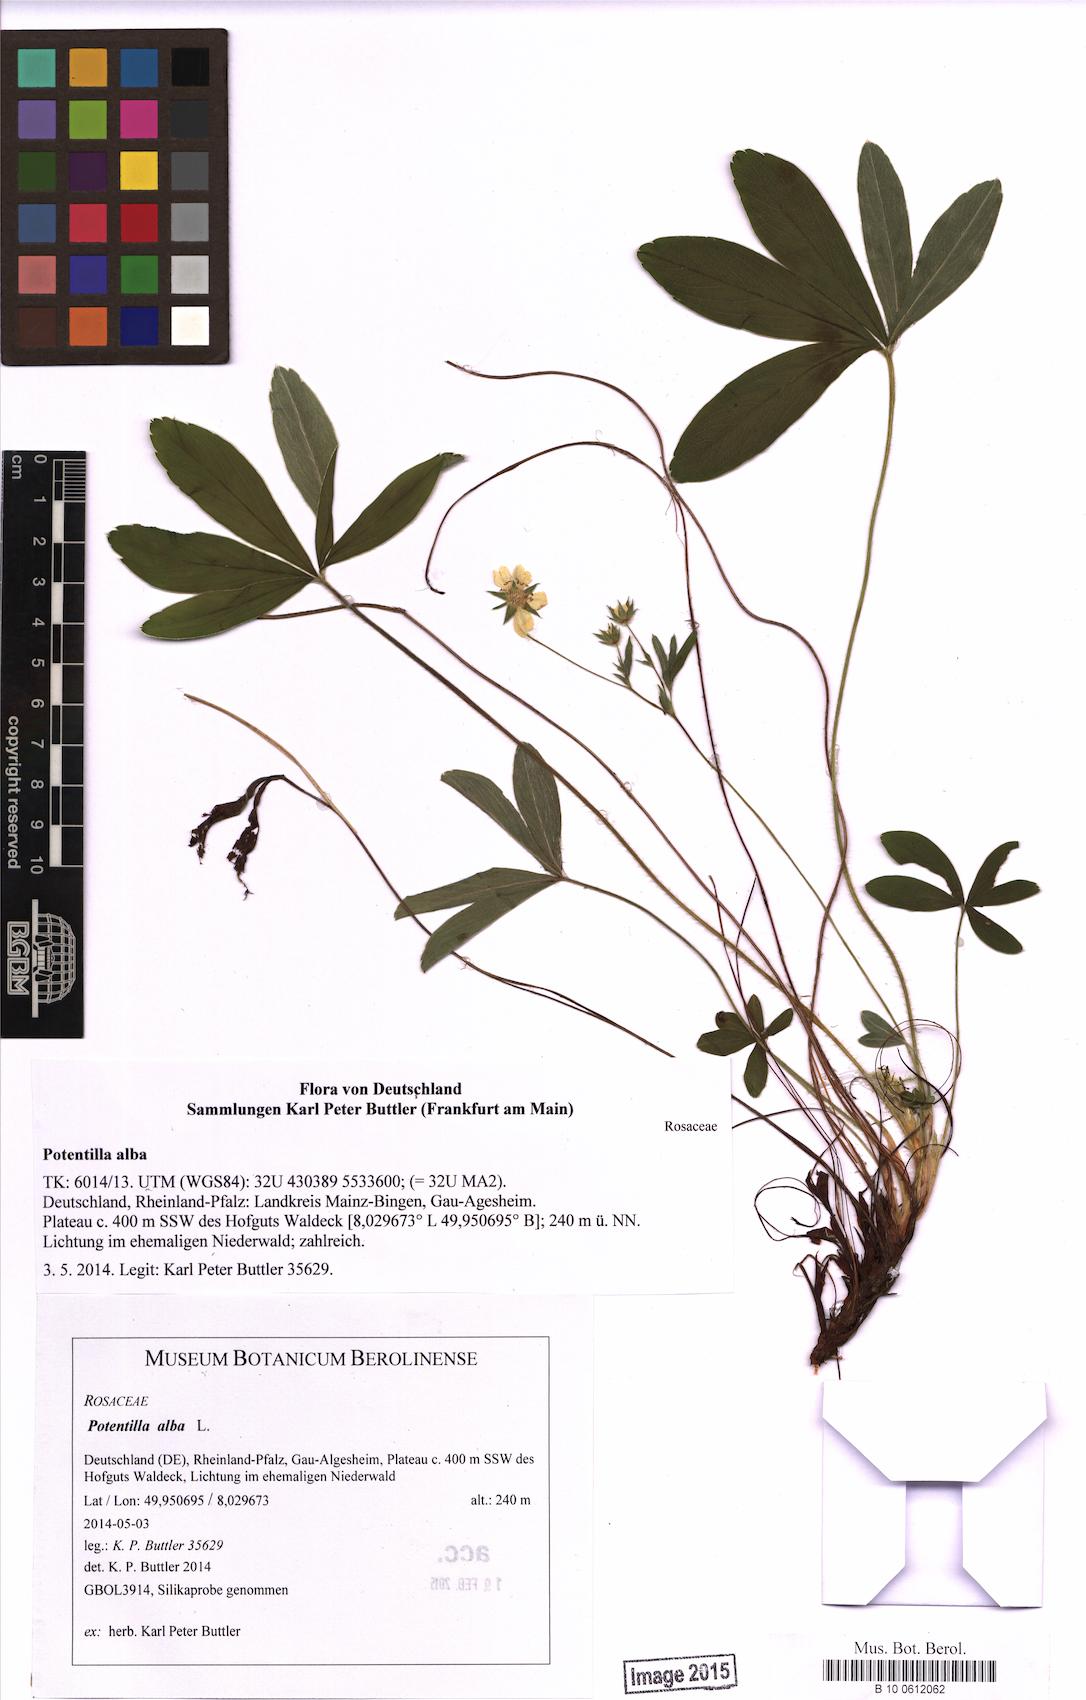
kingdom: Plantae
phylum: Tracheophyta
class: Magnoliopsida
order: Rosales
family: Rosaceae
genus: Potentilla
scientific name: Potentilla alba
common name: White cinquefoil
